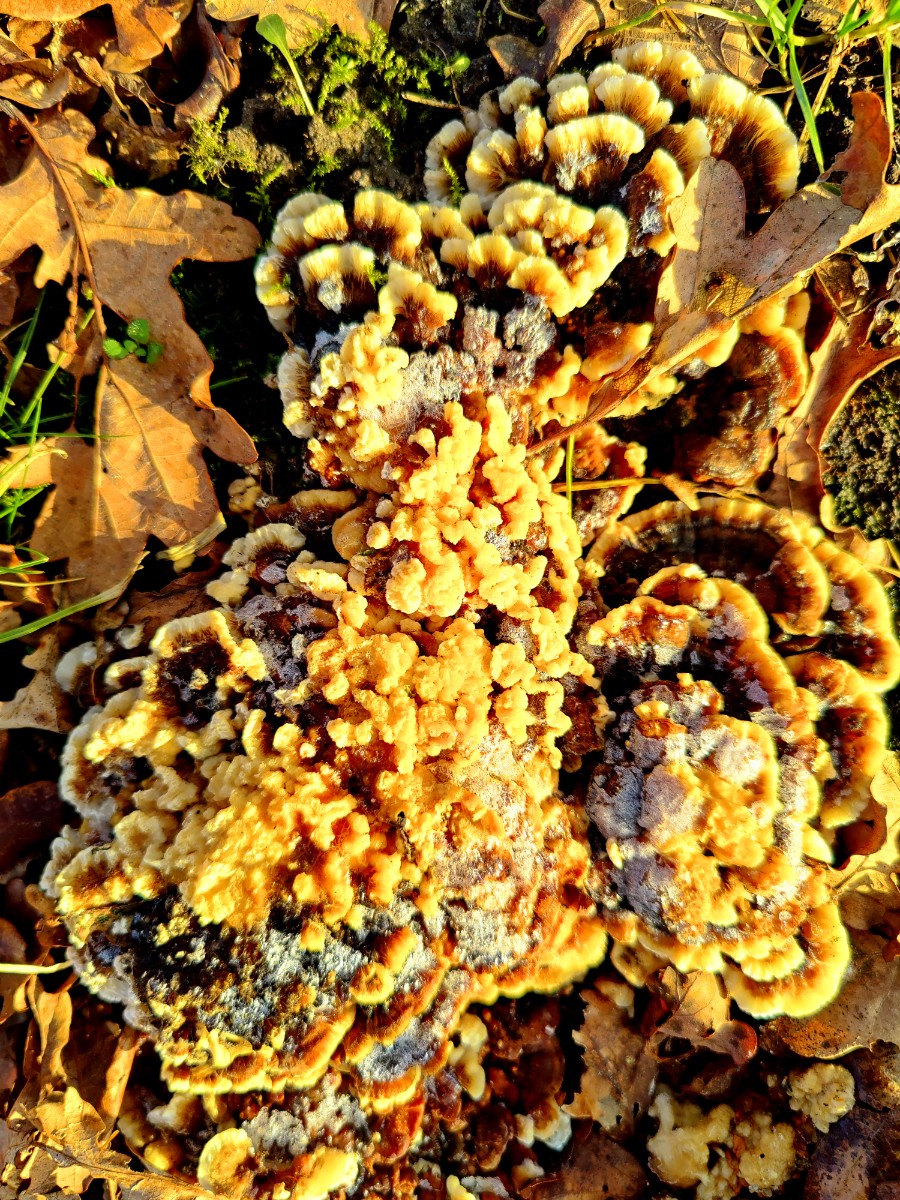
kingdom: Fungi
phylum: Basidiomycota
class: Agaricomycetes
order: Russulales
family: Stereaceae
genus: Stereum
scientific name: Stereum
